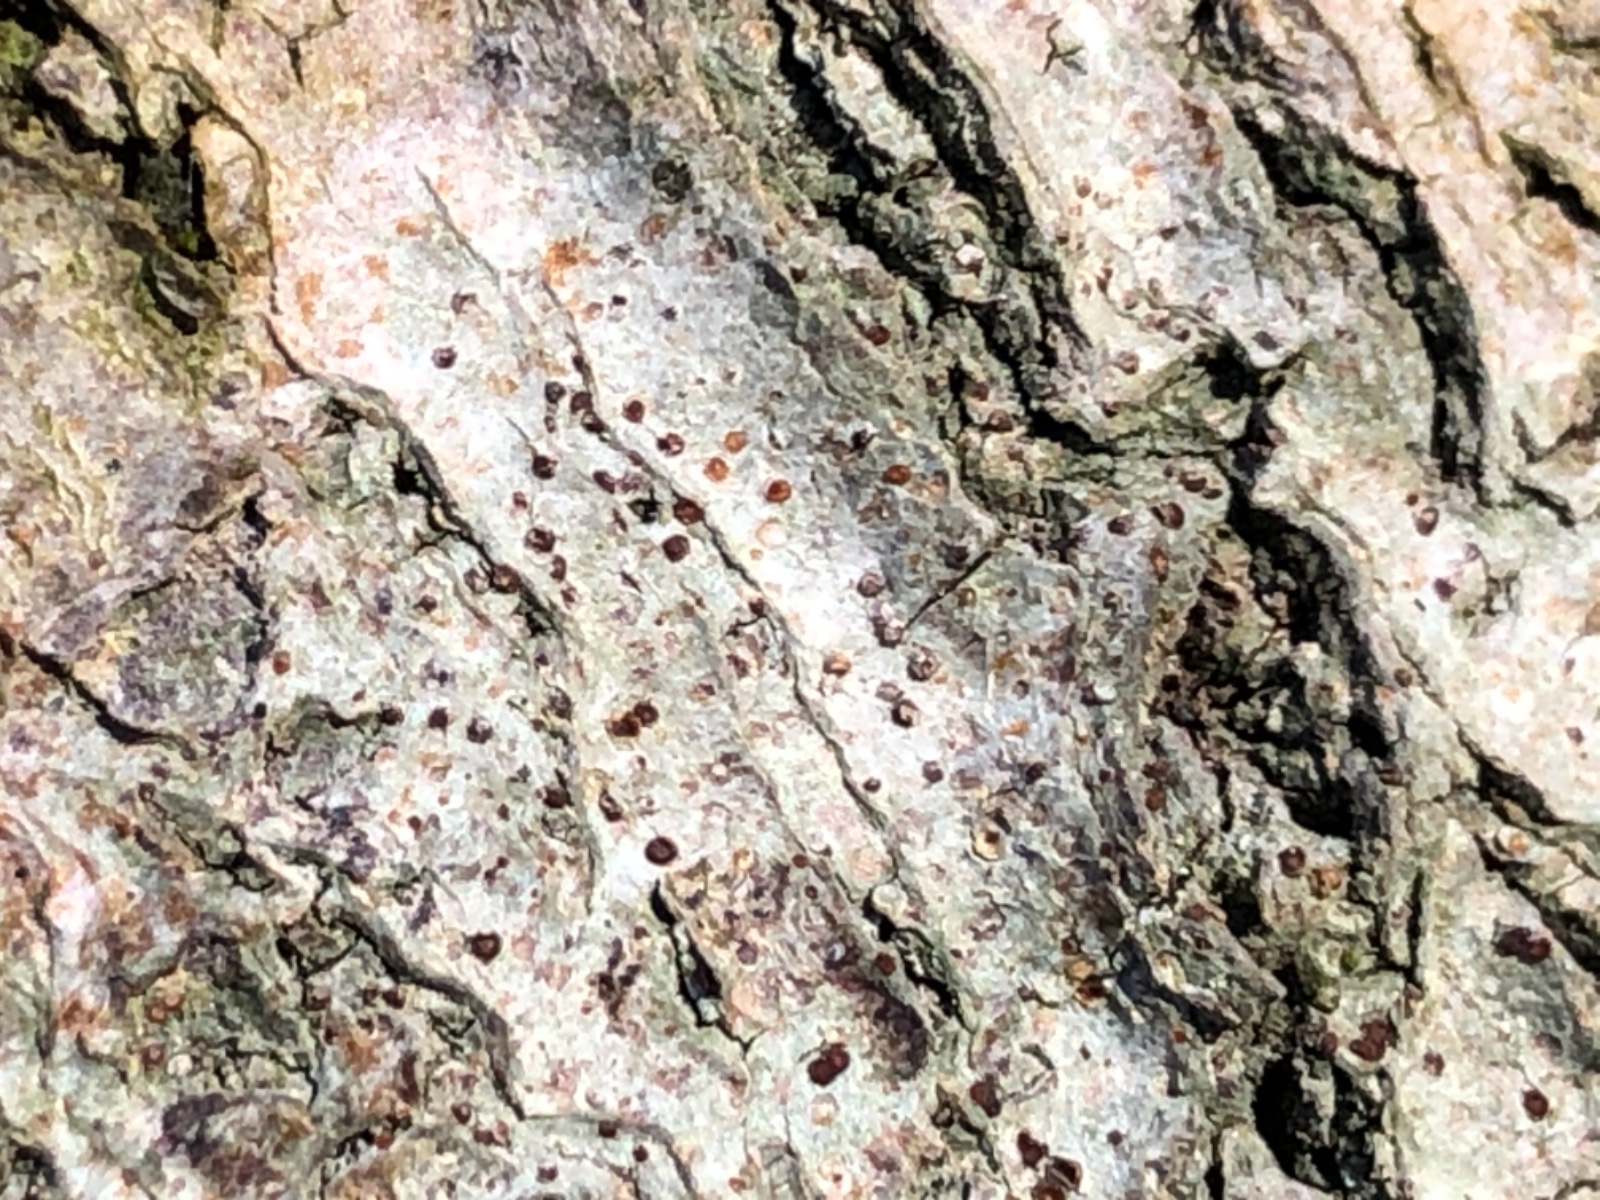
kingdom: Fungi
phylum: Ascomycota
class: Lecanoromycetes
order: Gyalectales
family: Gyalectaceae
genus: Pachyphiale
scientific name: Pachyphiale carneola
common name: rødbrun gammelskovslav
